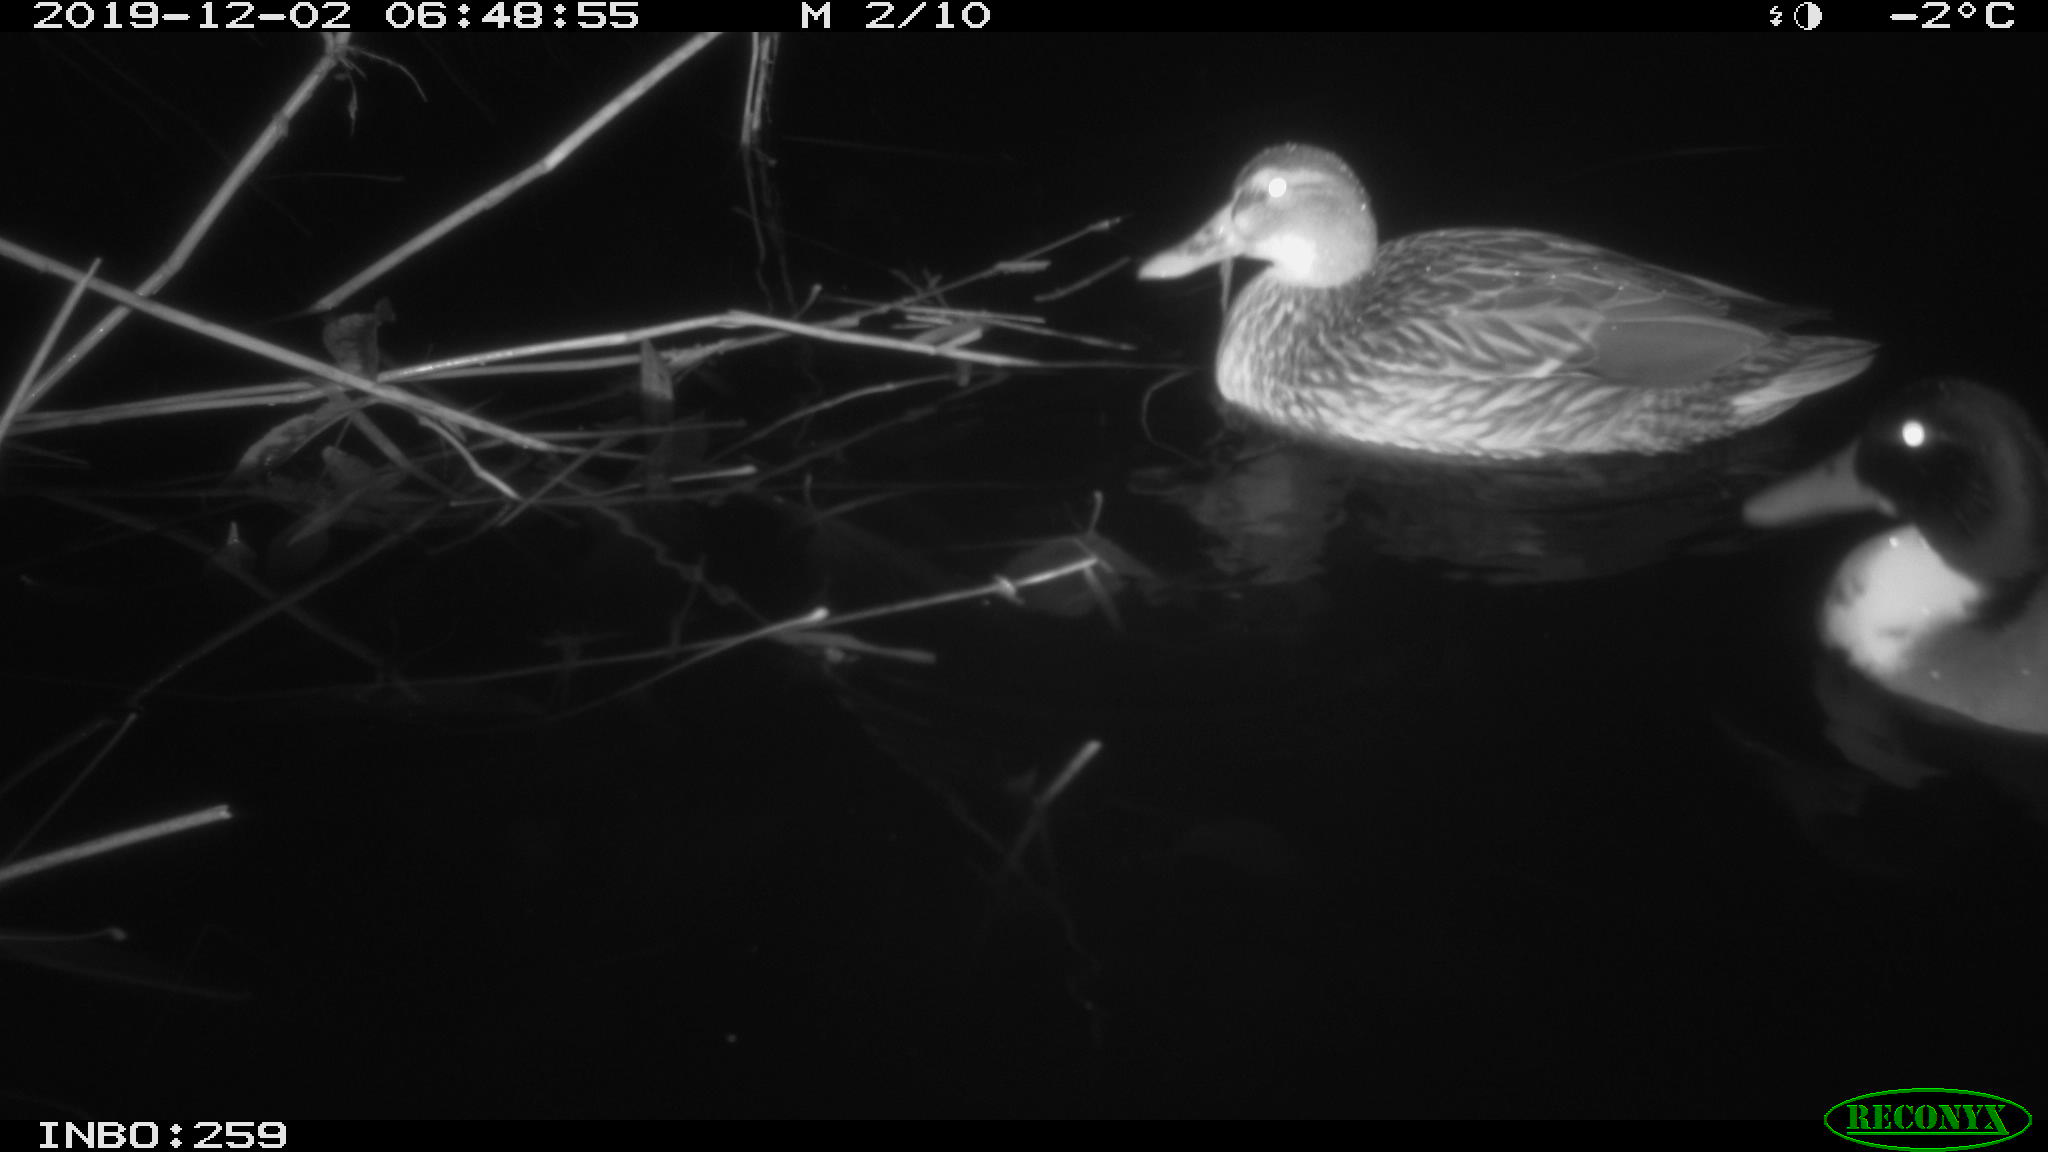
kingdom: Animalia
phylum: Chordata
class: Aves
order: Anseriformes
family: Anatidae
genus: Anas
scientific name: Anas platyrhynchos
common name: Mallard
